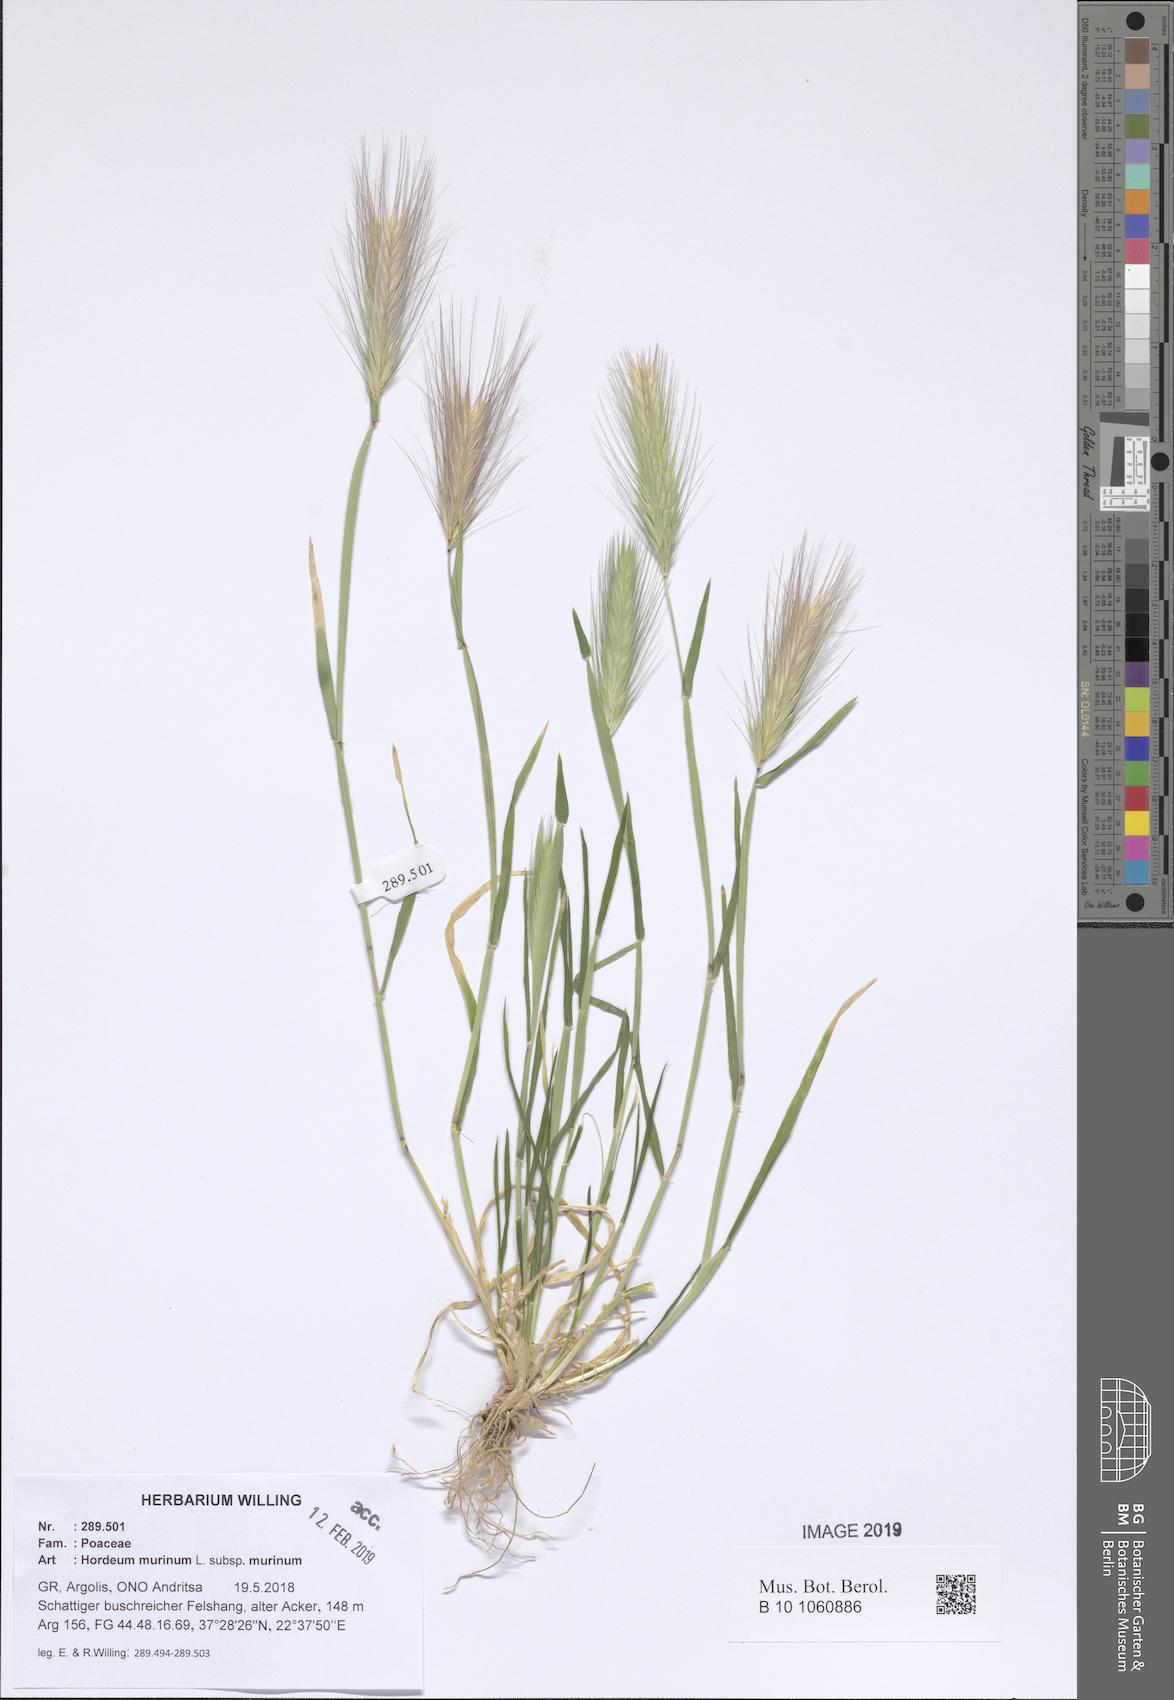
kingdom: Plantae
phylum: Tracheophyta
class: Liliopsida
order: Poales
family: Poaceae
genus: Hordeum
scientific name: Hordeum murinum
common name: Wall barley
